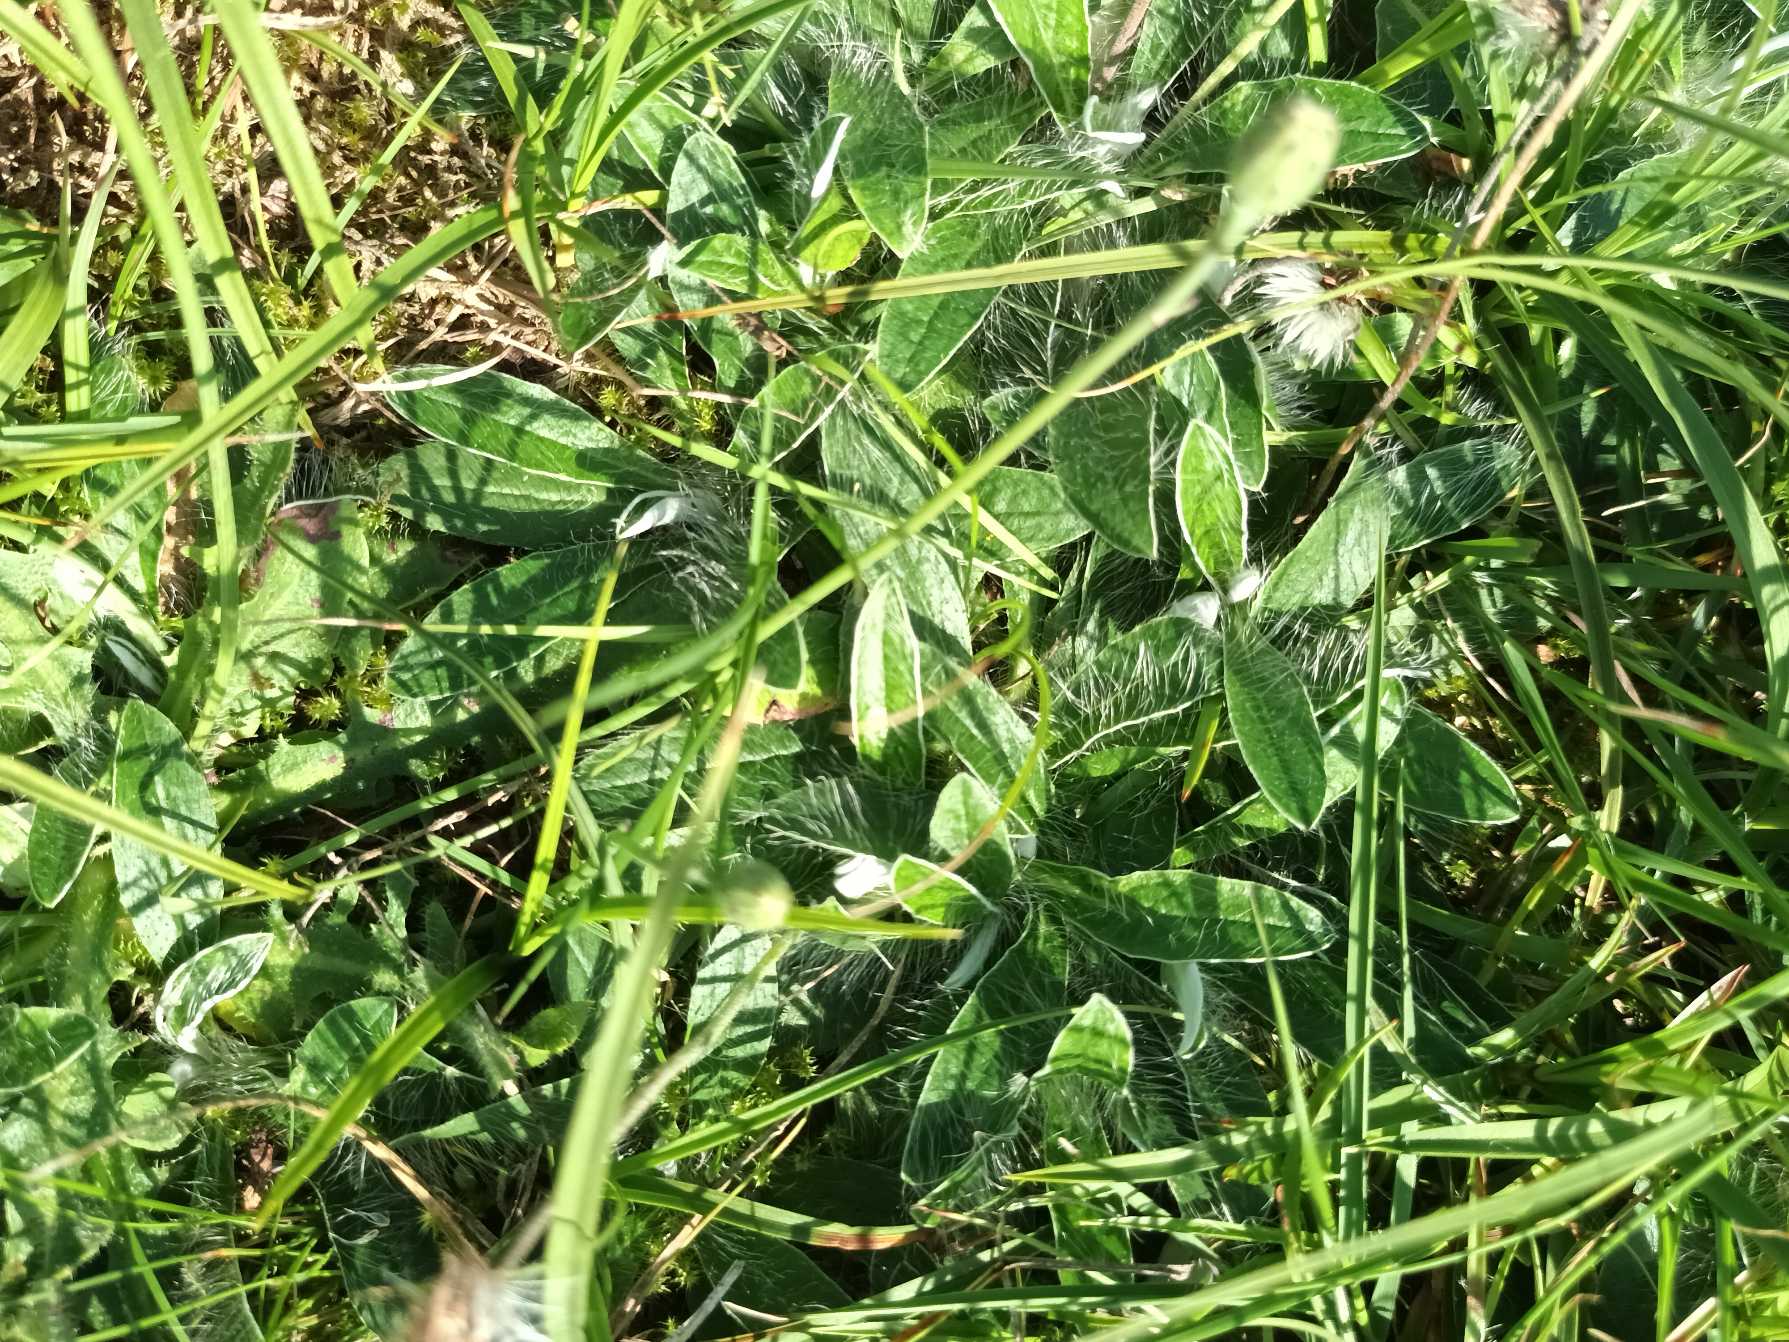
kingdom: Plantae
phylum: Tracheophyta
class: Magnoliopsida
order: Asterales
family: Asteraceae
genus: Pilosella
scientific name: Pilosella officinarum
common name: Håret høgeurt
